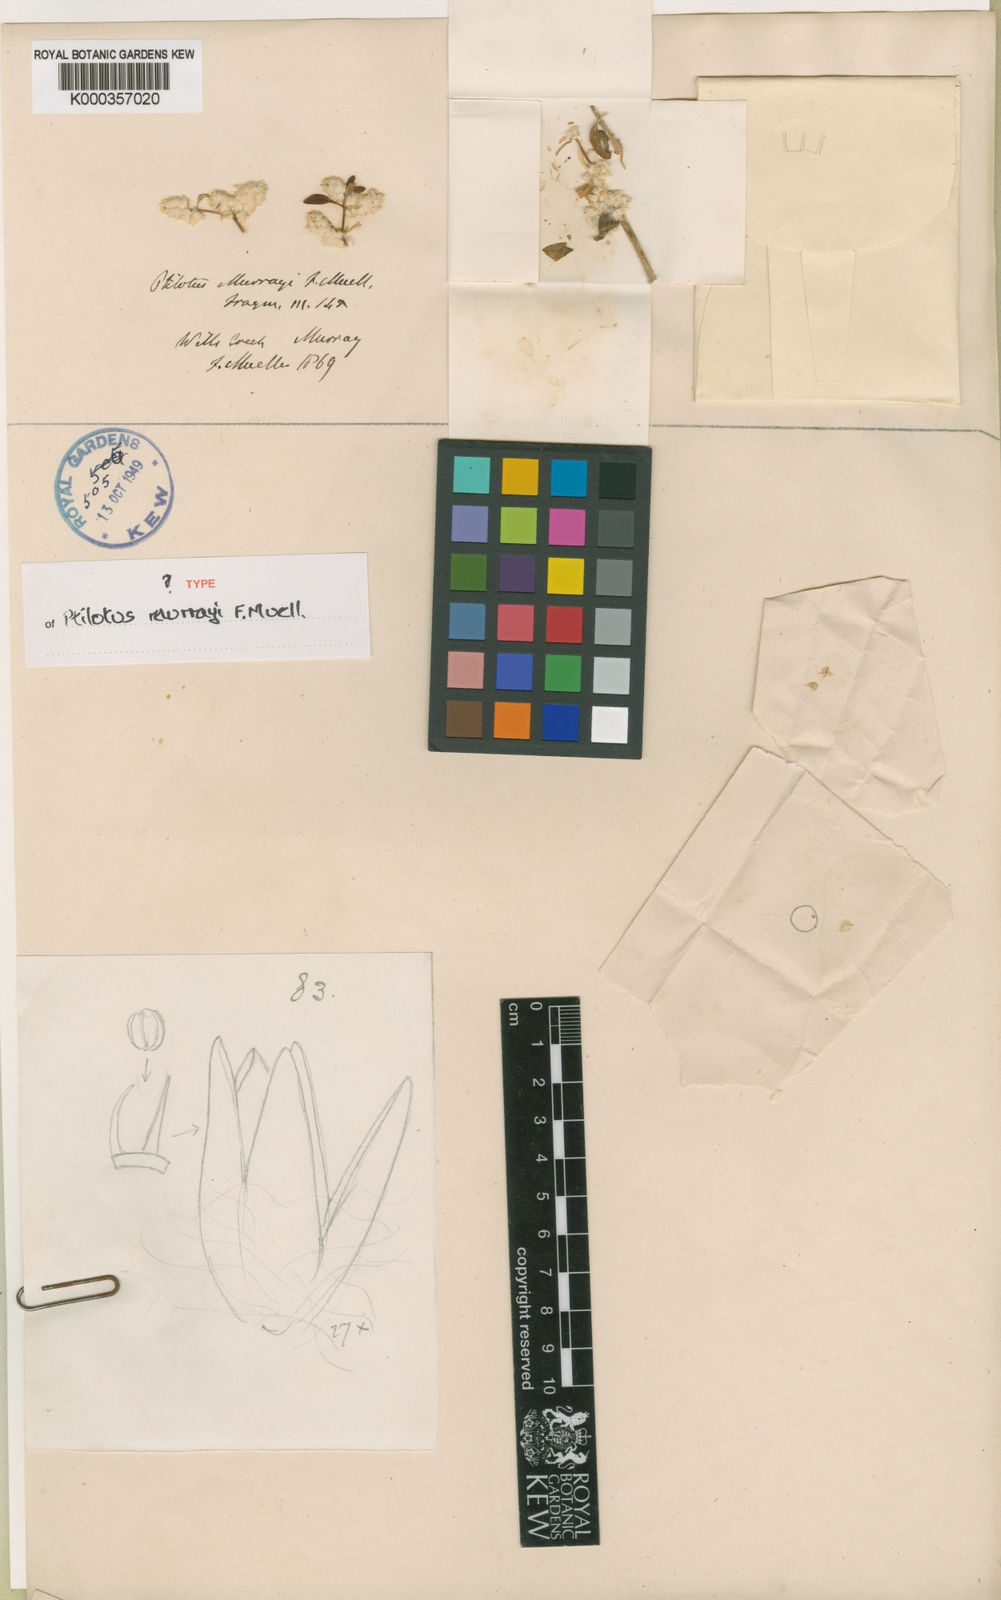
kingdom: Plantae
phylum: Tracheophyta
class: Magnoliopsida
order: Caryophyllales
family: Amaranthaceae
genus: Ptilotus
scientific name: Ptilotus murrayi
